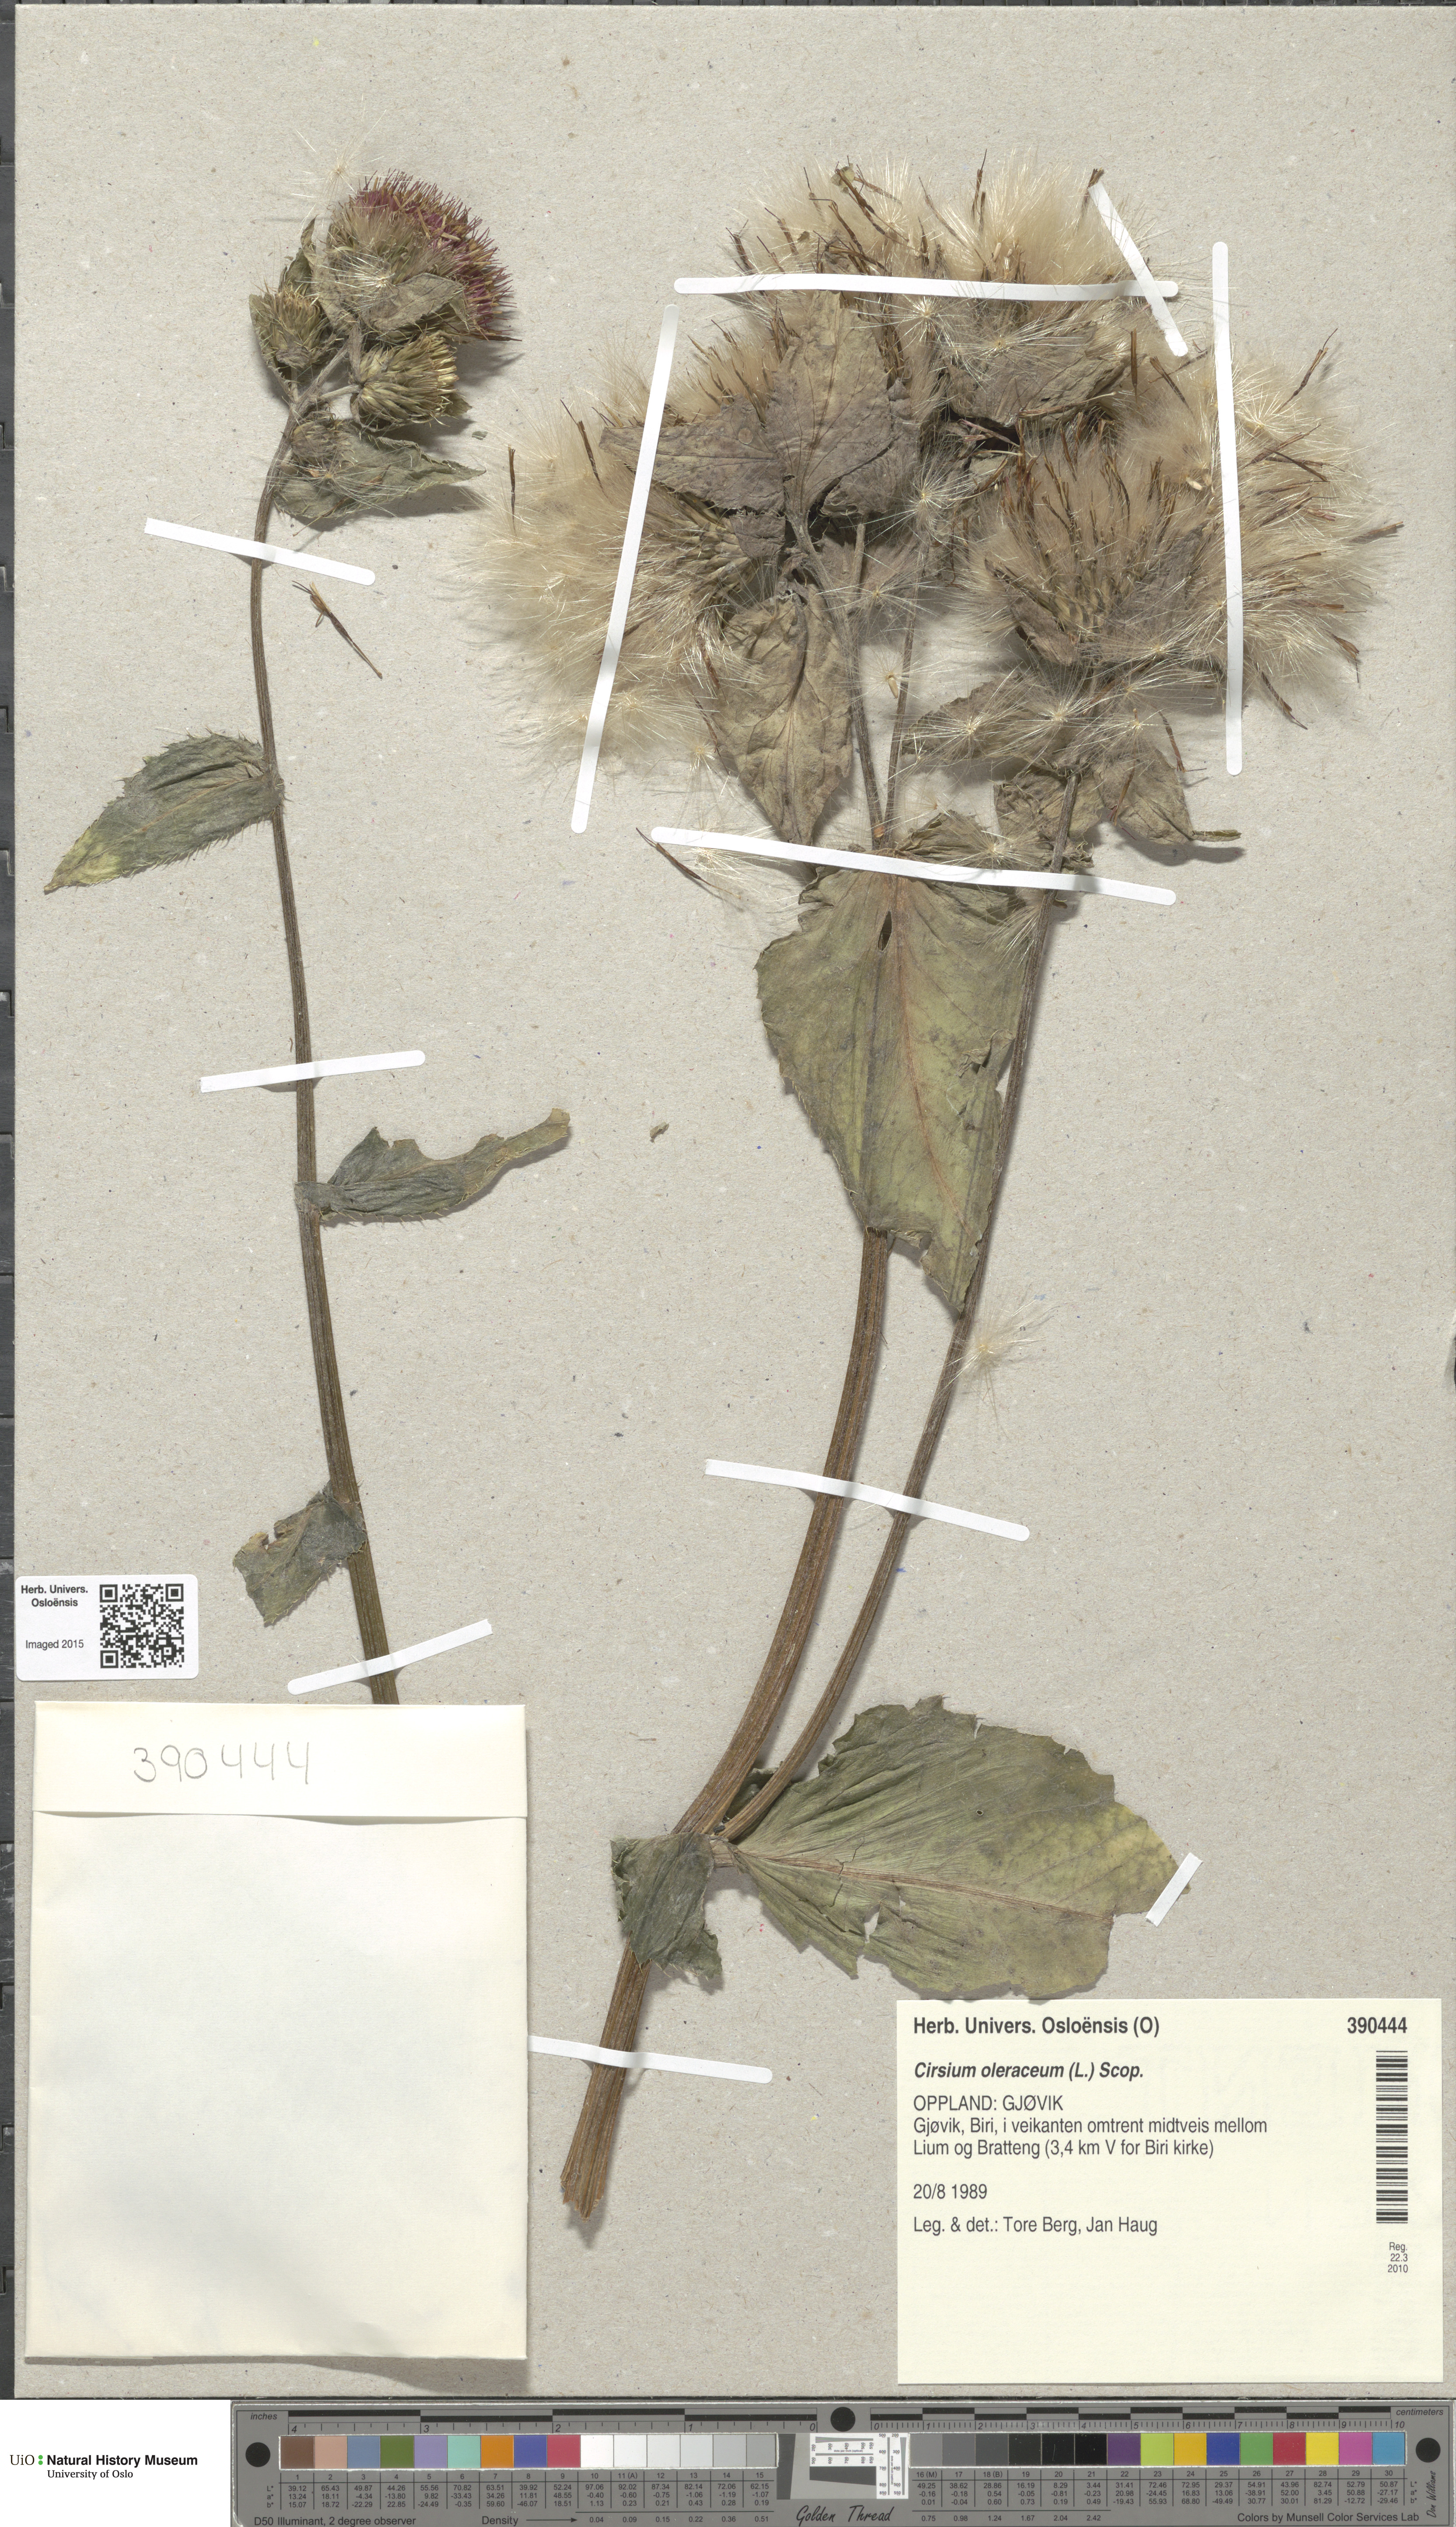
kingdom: Plantae
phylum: Tracheophyta
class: Magnoliopsida
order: Asterales
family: Asteraceae
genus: Cirsium
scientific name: Cirsium oleraceum
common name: Cabbage thistle
